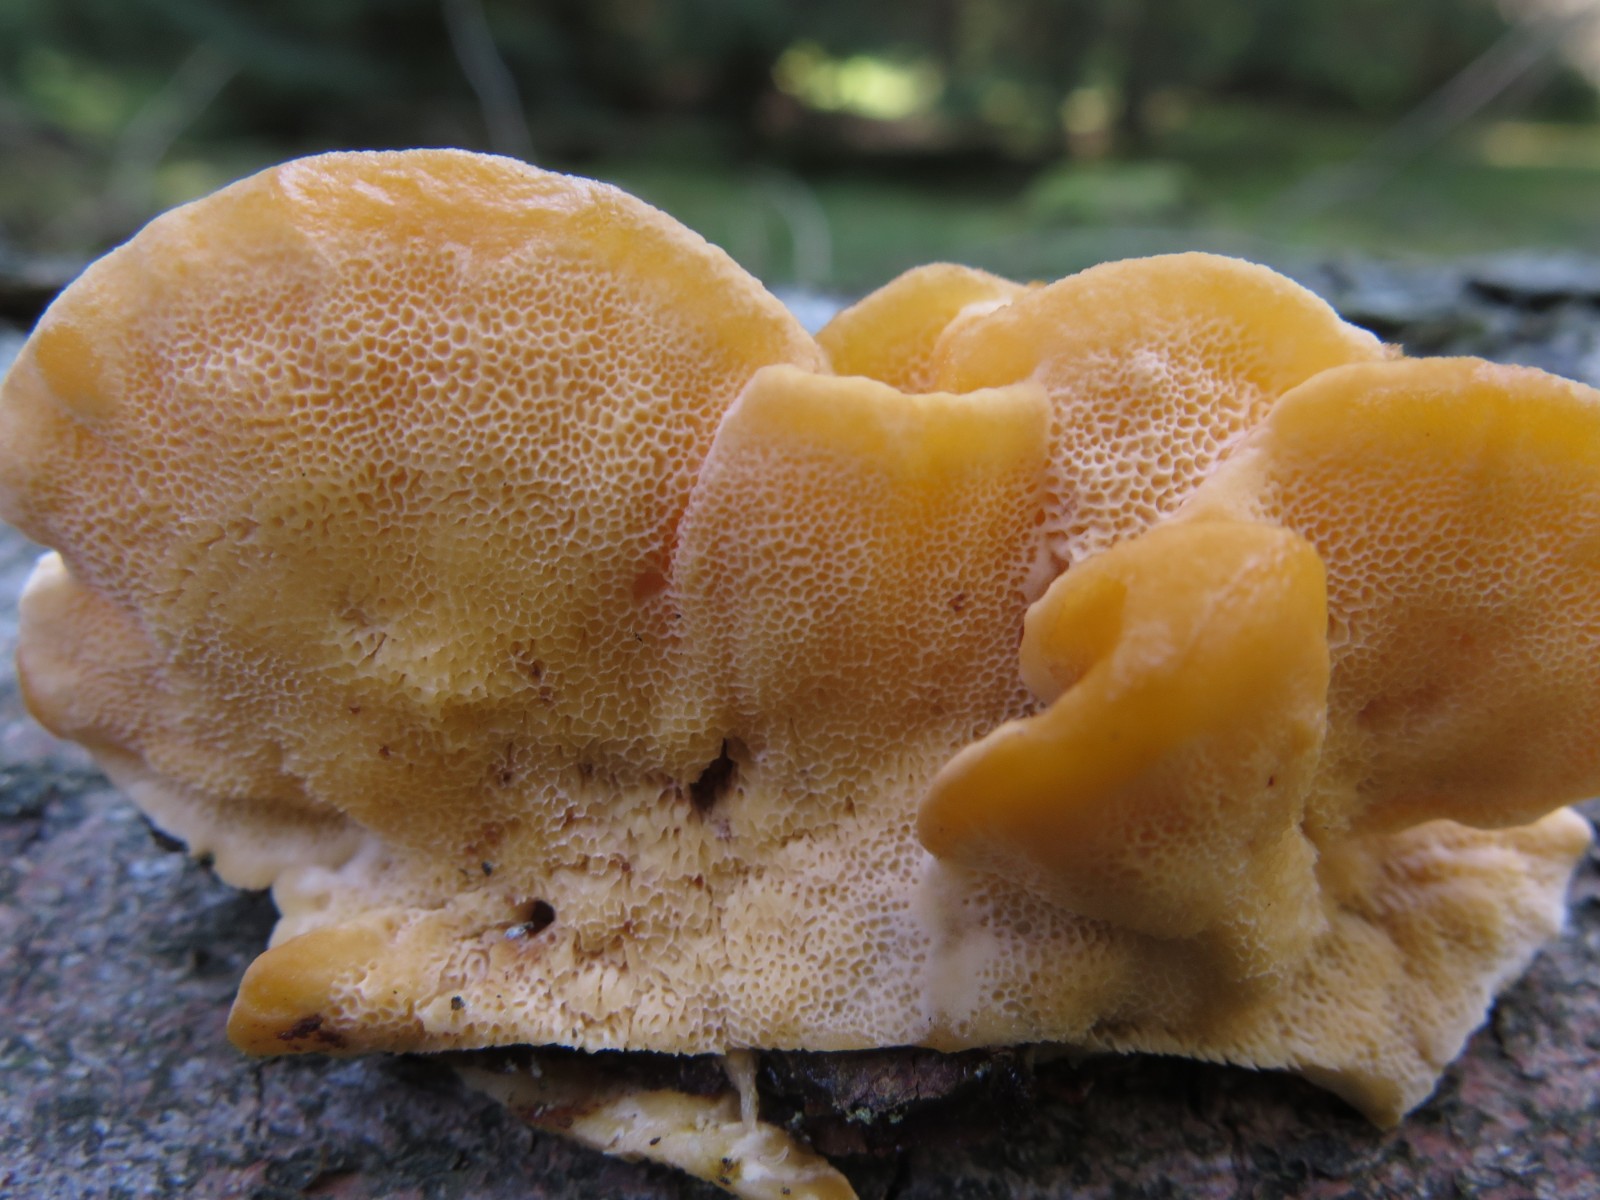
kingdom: Fungi
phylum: Basidiomycota
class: Agaricomycetes
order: Polyporales
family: Pycnoporellaceae
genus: Pycnoporellus
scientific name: Pycnoporellus fulgens
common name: flammeporesvamp
